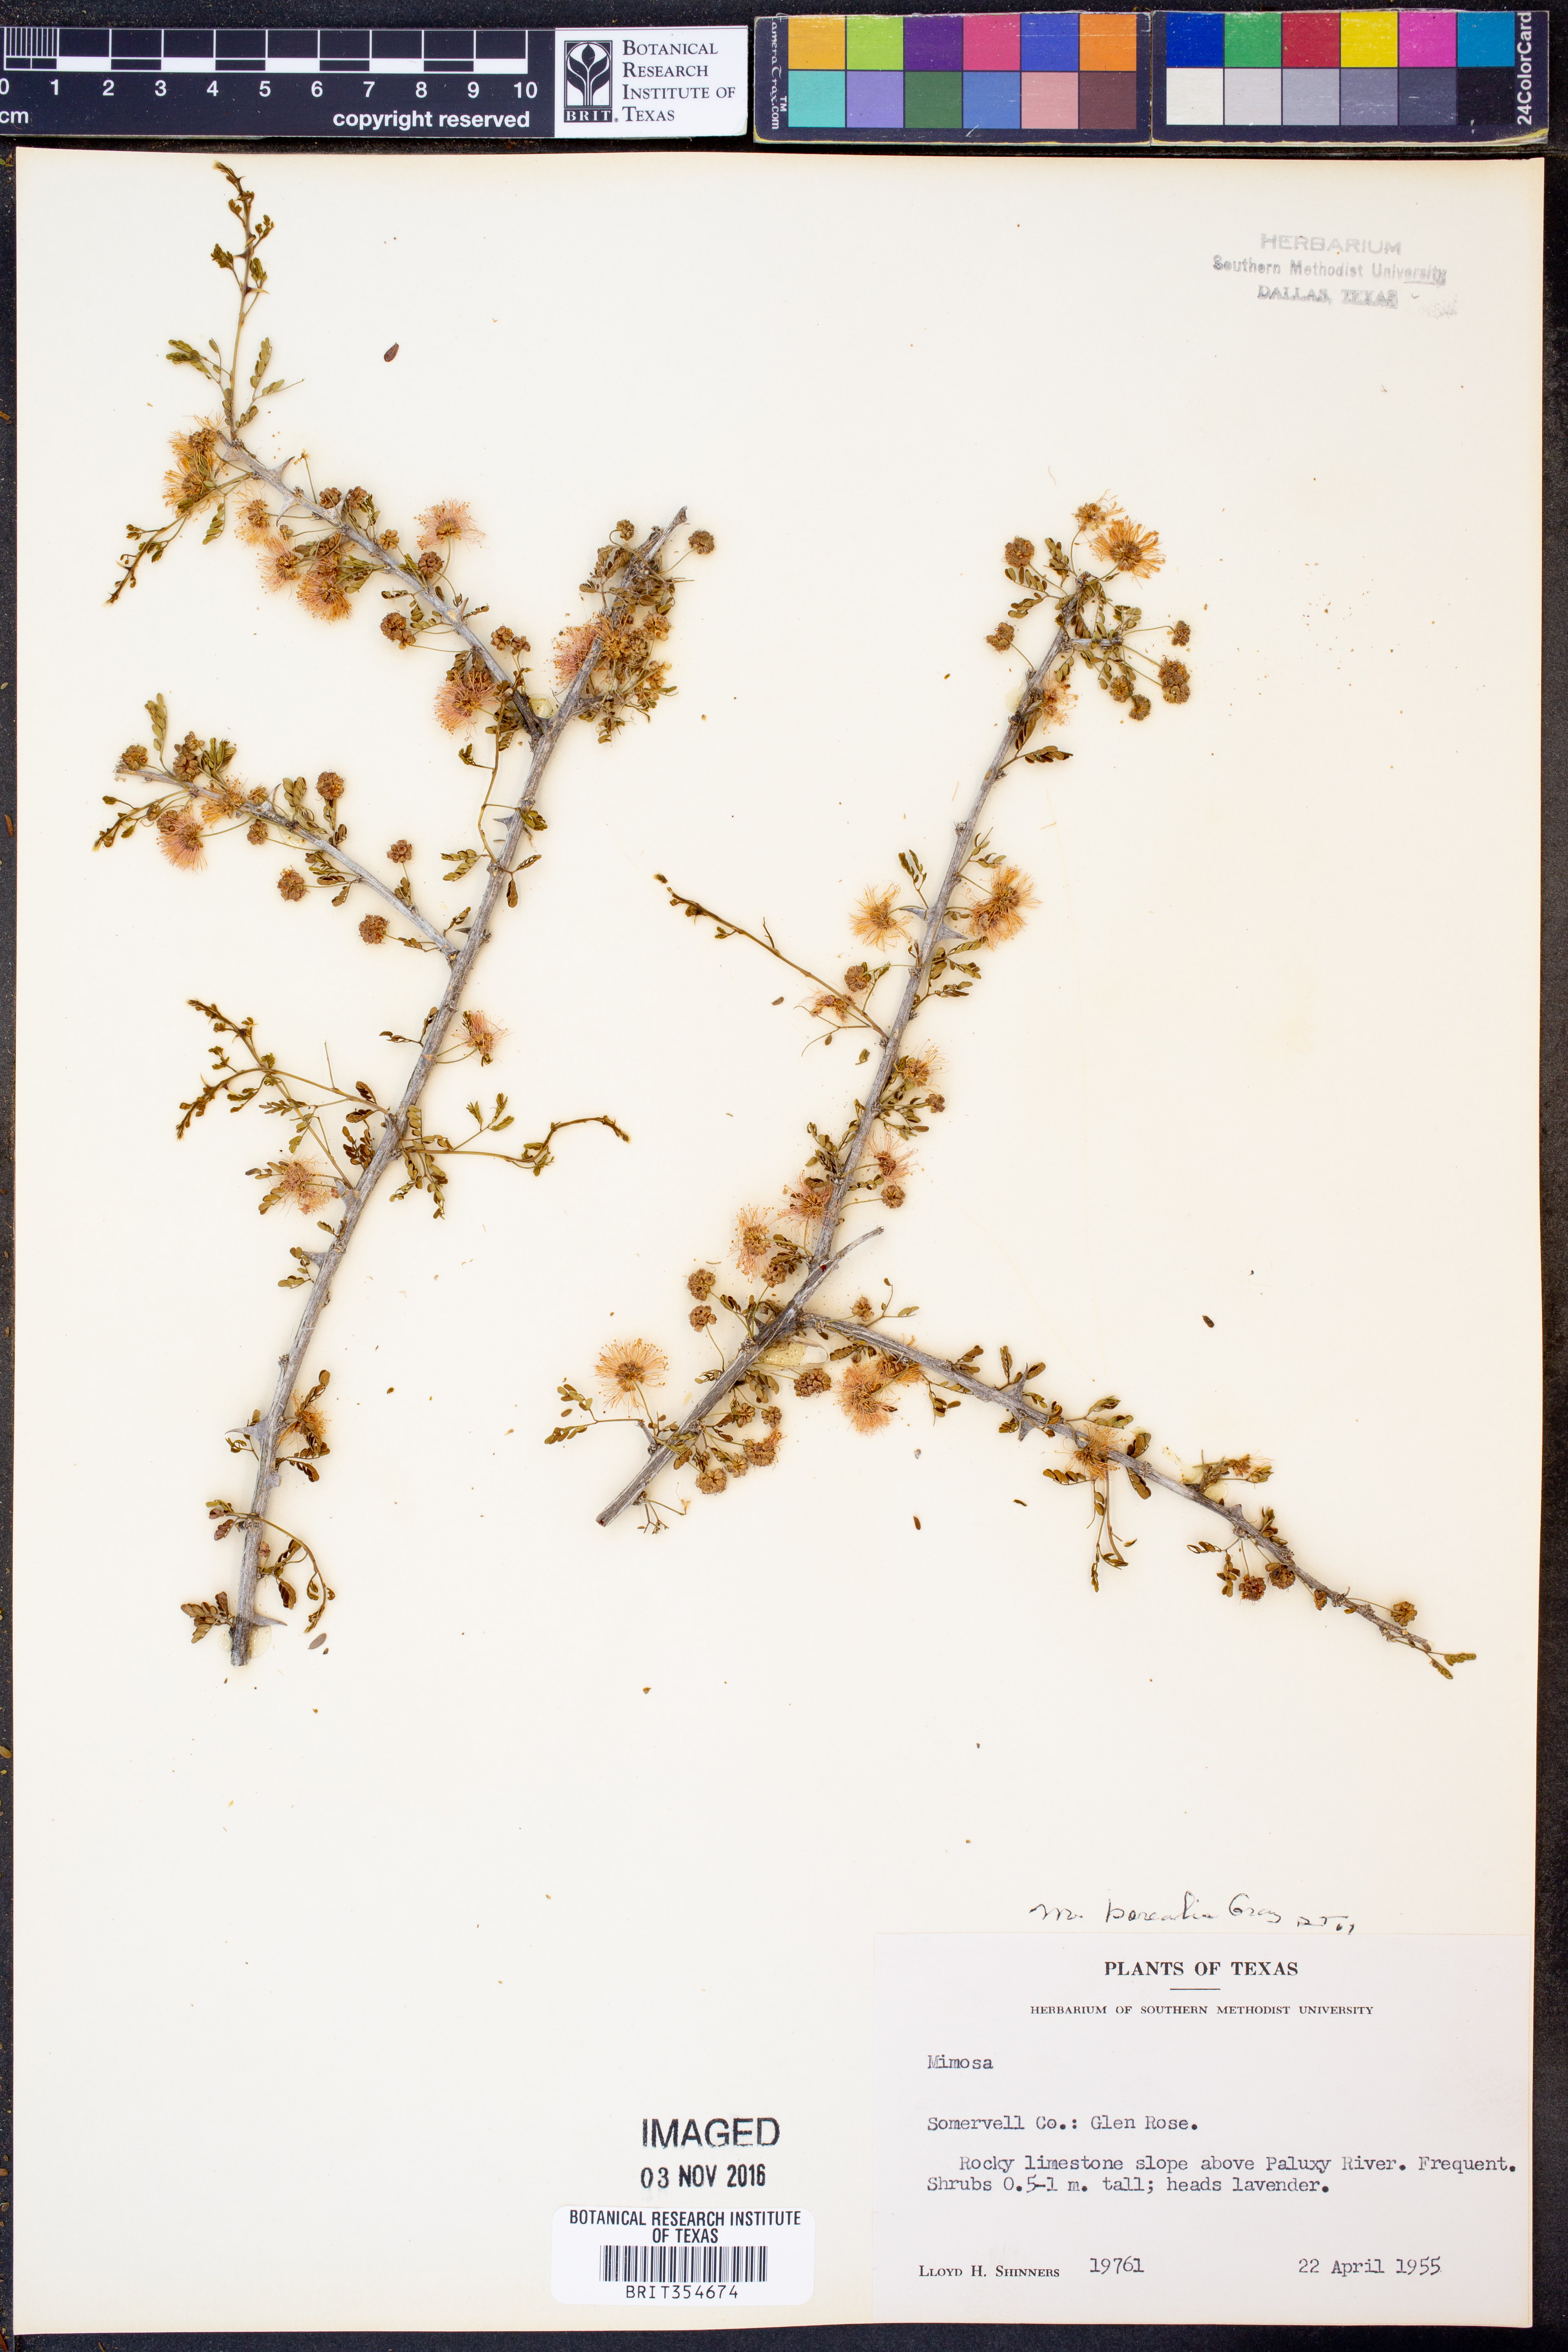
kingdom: Plantae
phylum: Tracheophyta
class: Magnoliopsida
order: Fabales
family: Fabaceae
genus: Mimosa
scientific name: Mimosa borealis
